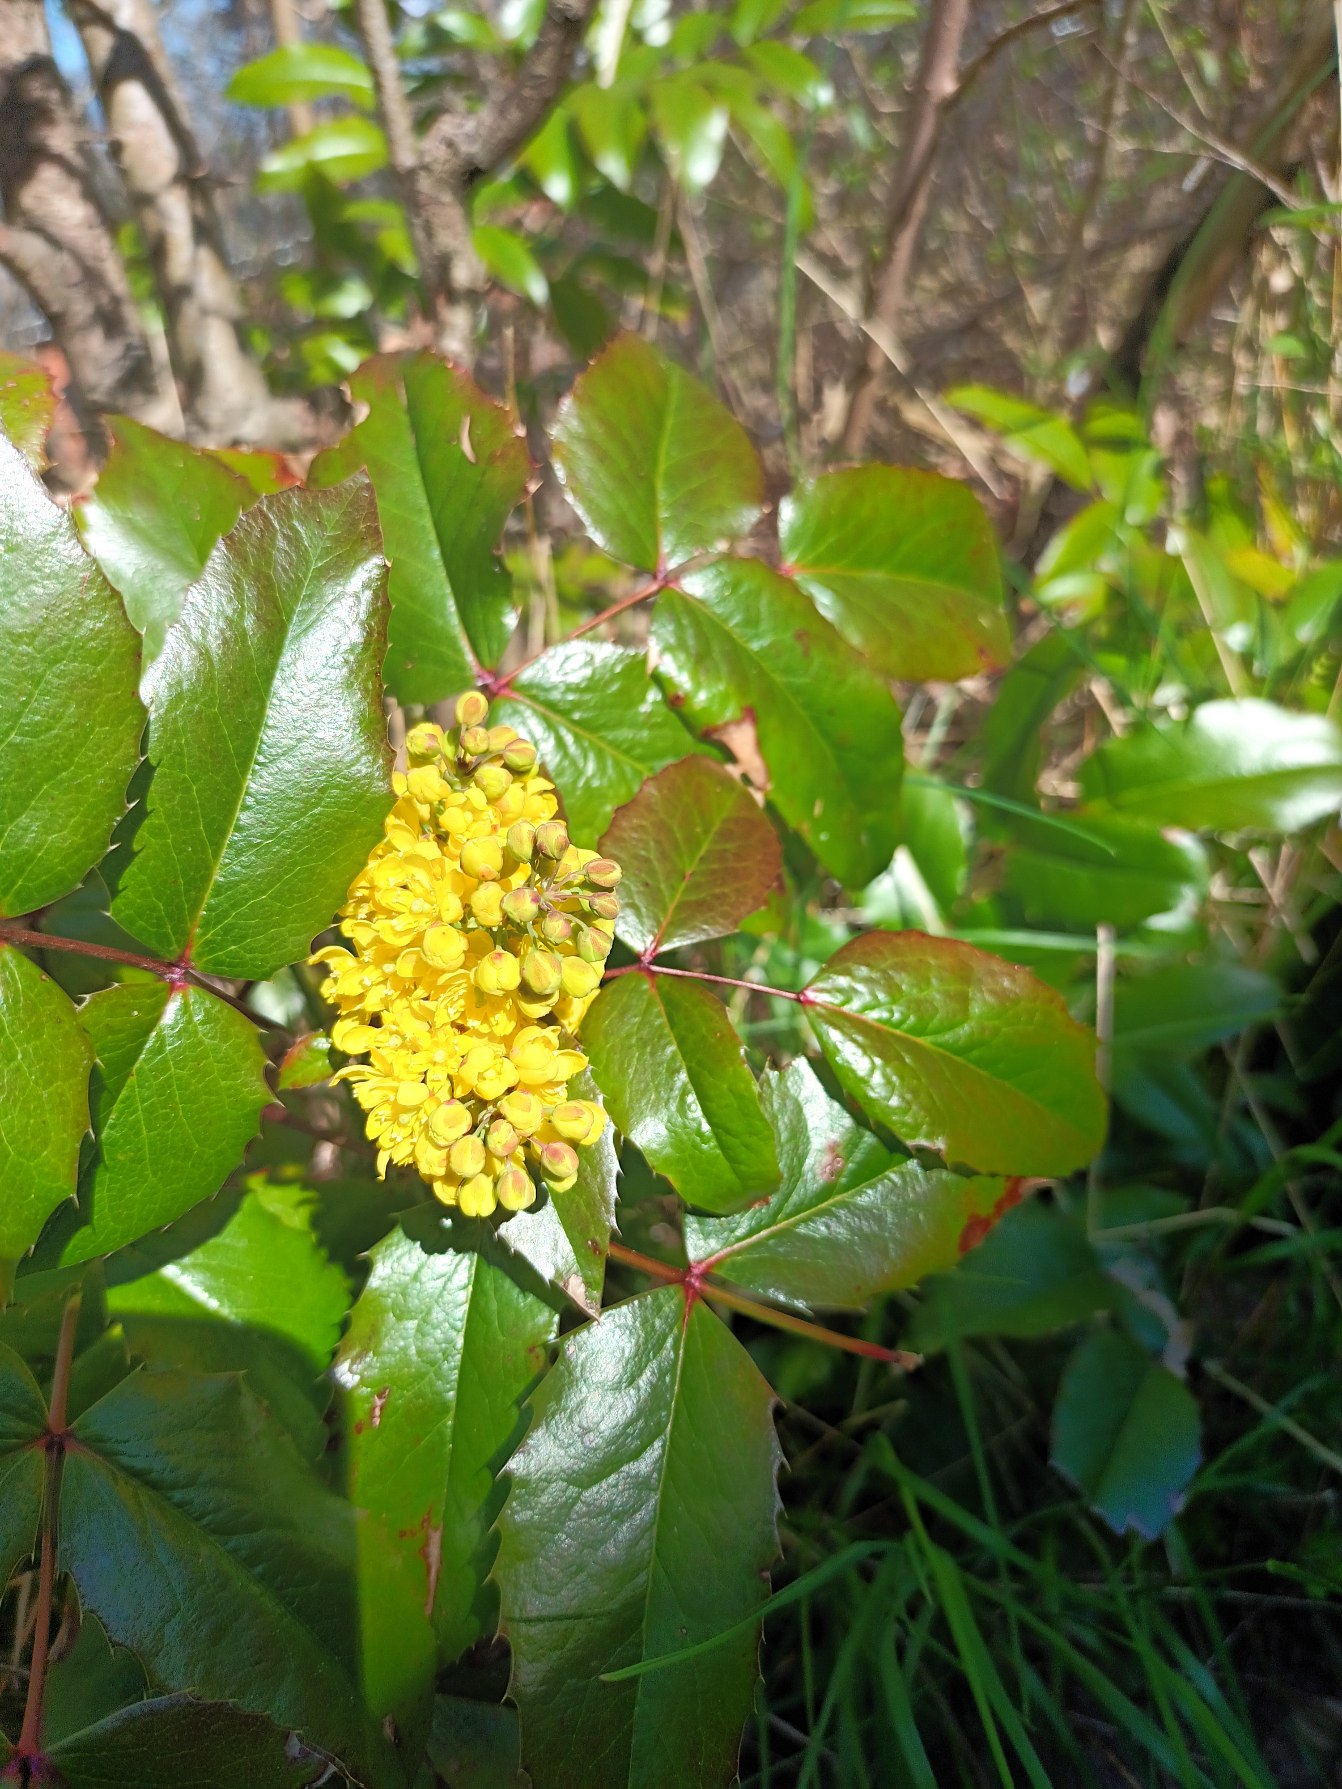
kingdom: Plantae
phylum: Tracheophyta
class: Magnoliopsida
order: Ranunculales
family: Berberidaceae
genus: Mahonia
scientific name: Mahonia aquifolium
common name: Almindelig mahonie
